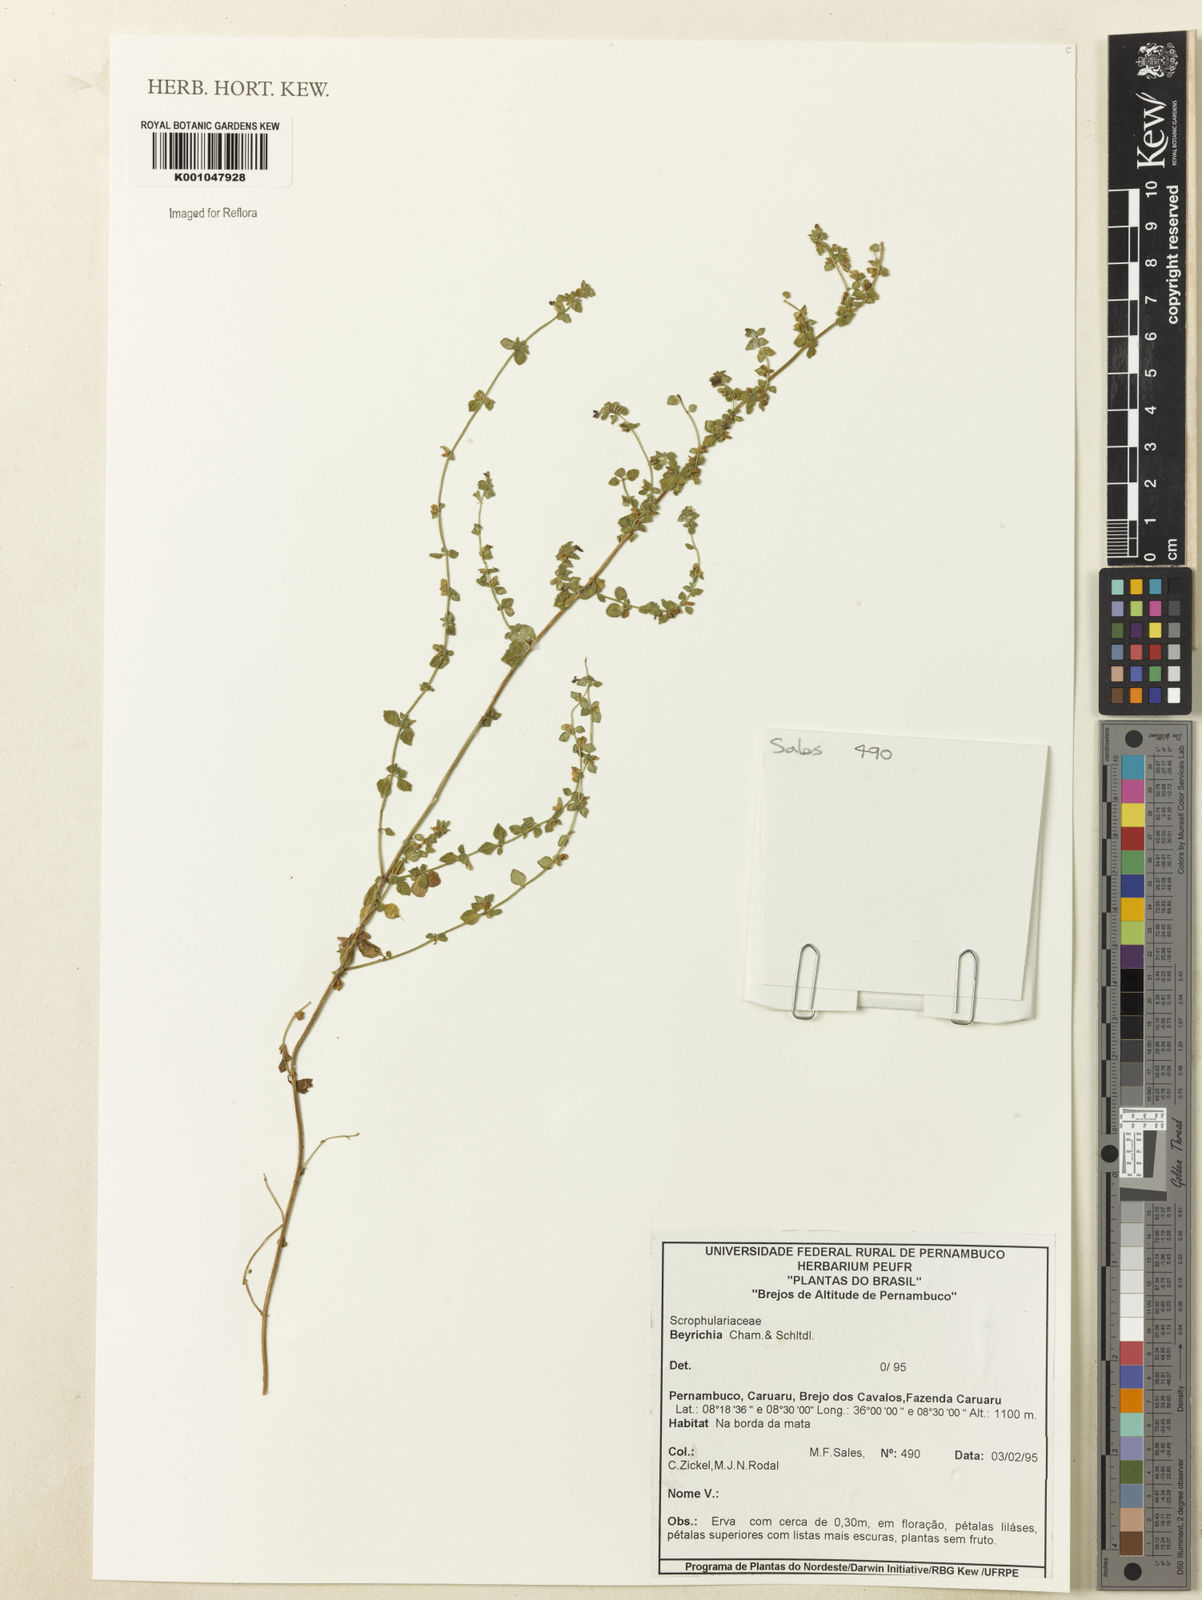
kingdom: Plantae
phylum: Tracheophyta
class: Magnoliopsida
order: Lamiales
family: Plantaginaceae
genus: Matourea
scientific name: Matourea scutellarioides
